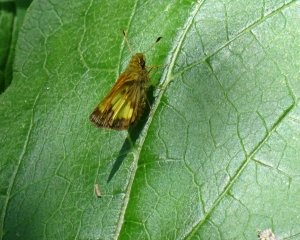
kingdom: Animalia
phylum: Arthropoda
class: Insecta
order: Lepidoptera
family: Hesperiidae
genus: Lon
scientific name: Lon hobomok
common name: Hobomok Skipper
